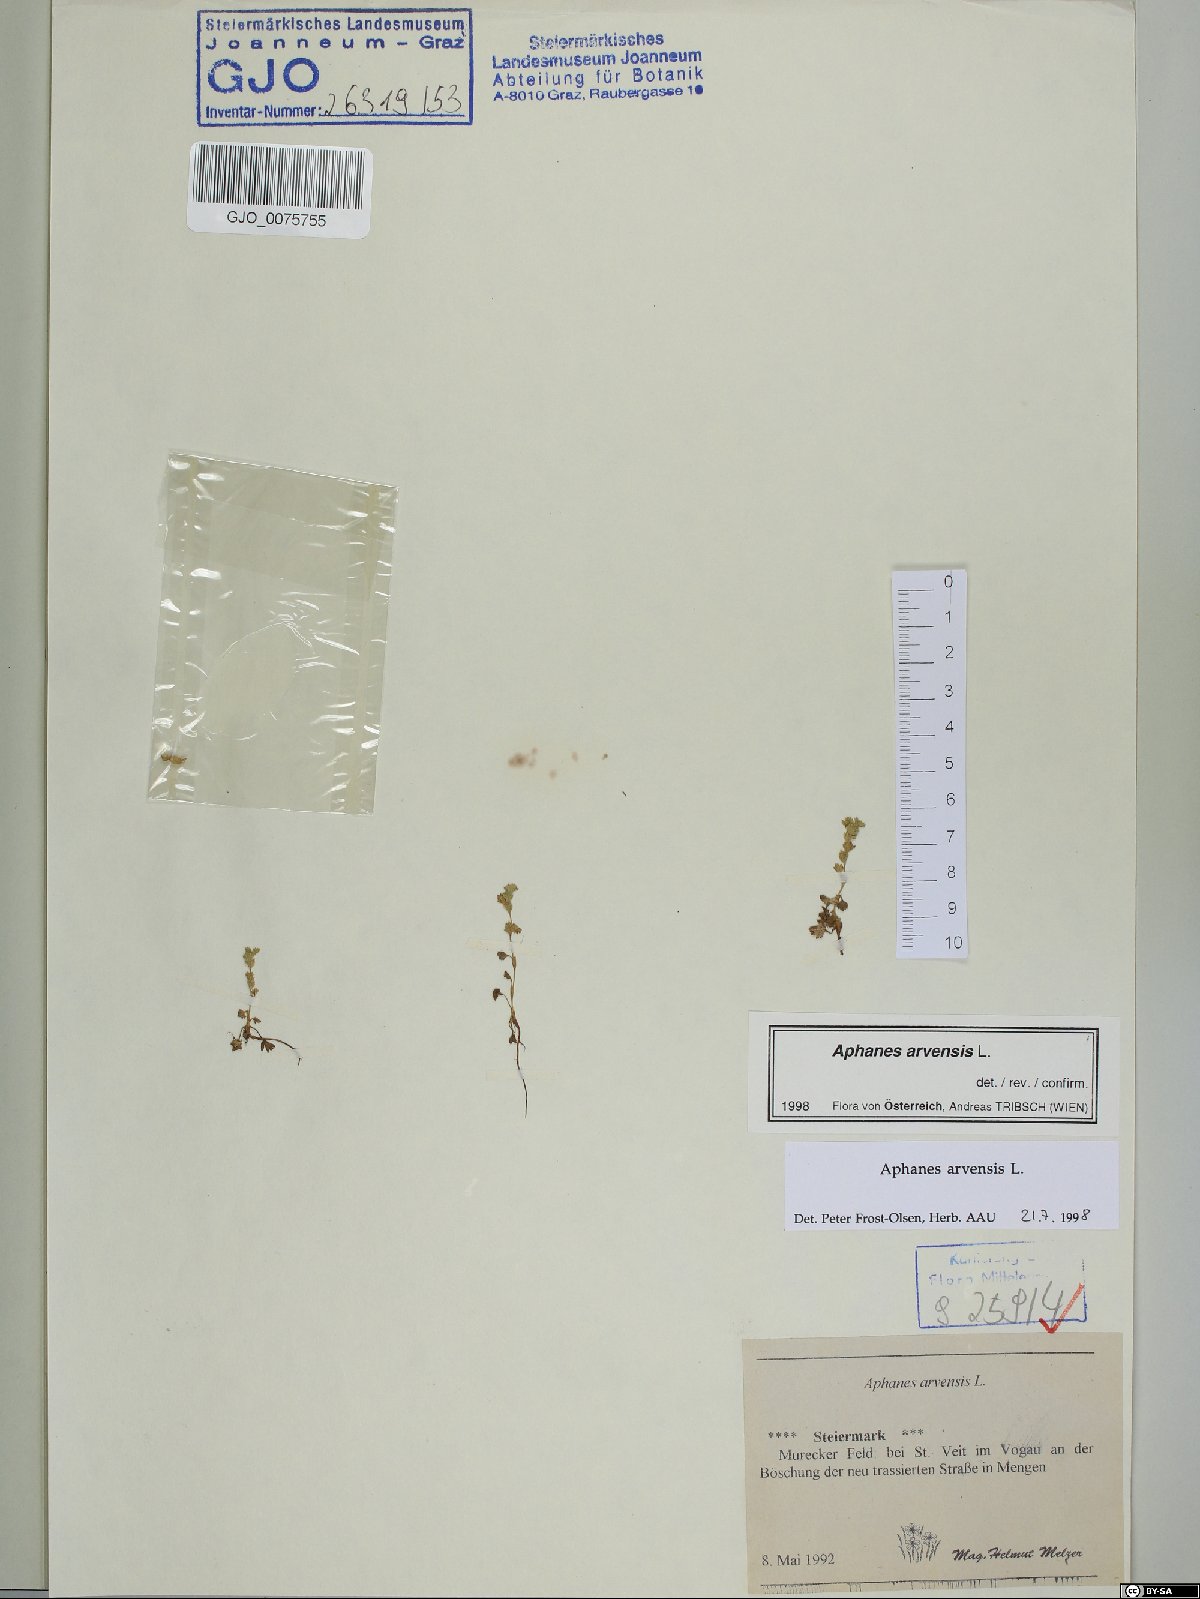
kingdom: Plantae
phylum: Tracheophyta
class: Magnoliopsida
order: Rosales
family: Rosaceae
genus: Aphanes
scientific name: Aphanes arvensis
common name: Parsley-piert
